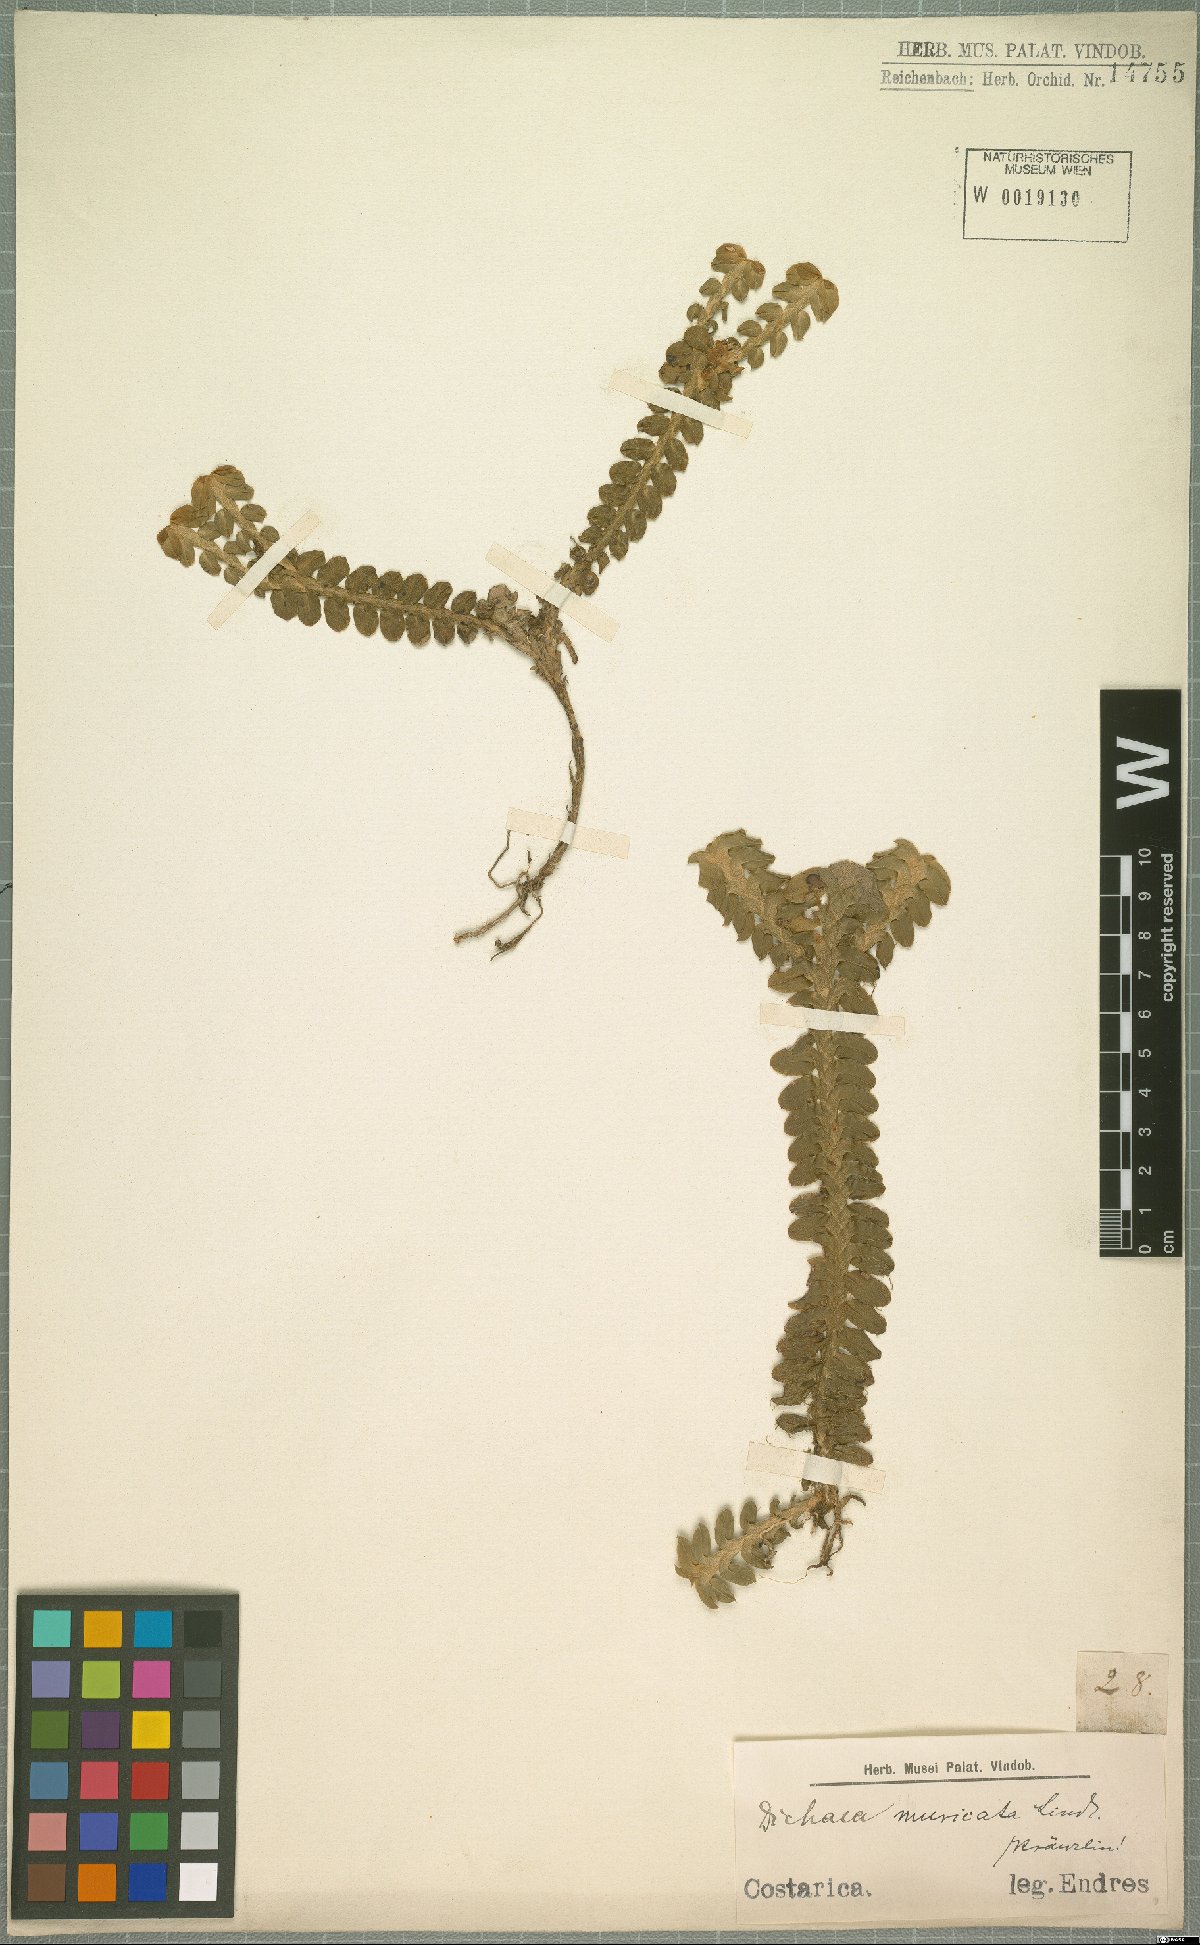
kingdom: Plantae
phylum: Tracheophyta
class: Liliopsida
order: Asparagales
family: Orchidaceae
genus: Dichaea
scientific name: Dichaea morrisii
